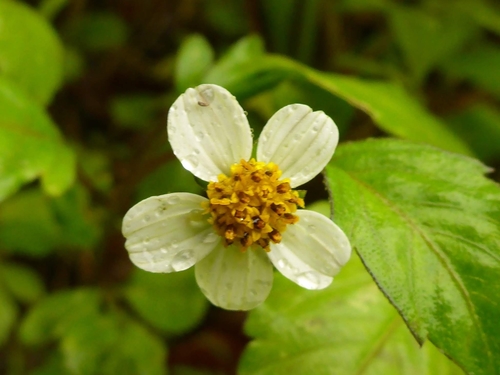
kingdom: Plantae
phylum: Tracheophyta
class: Magnoliopsida
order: Asterales
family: Asteraceae
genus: Bidens
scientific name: Bidens pilosa
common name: Black-jack
